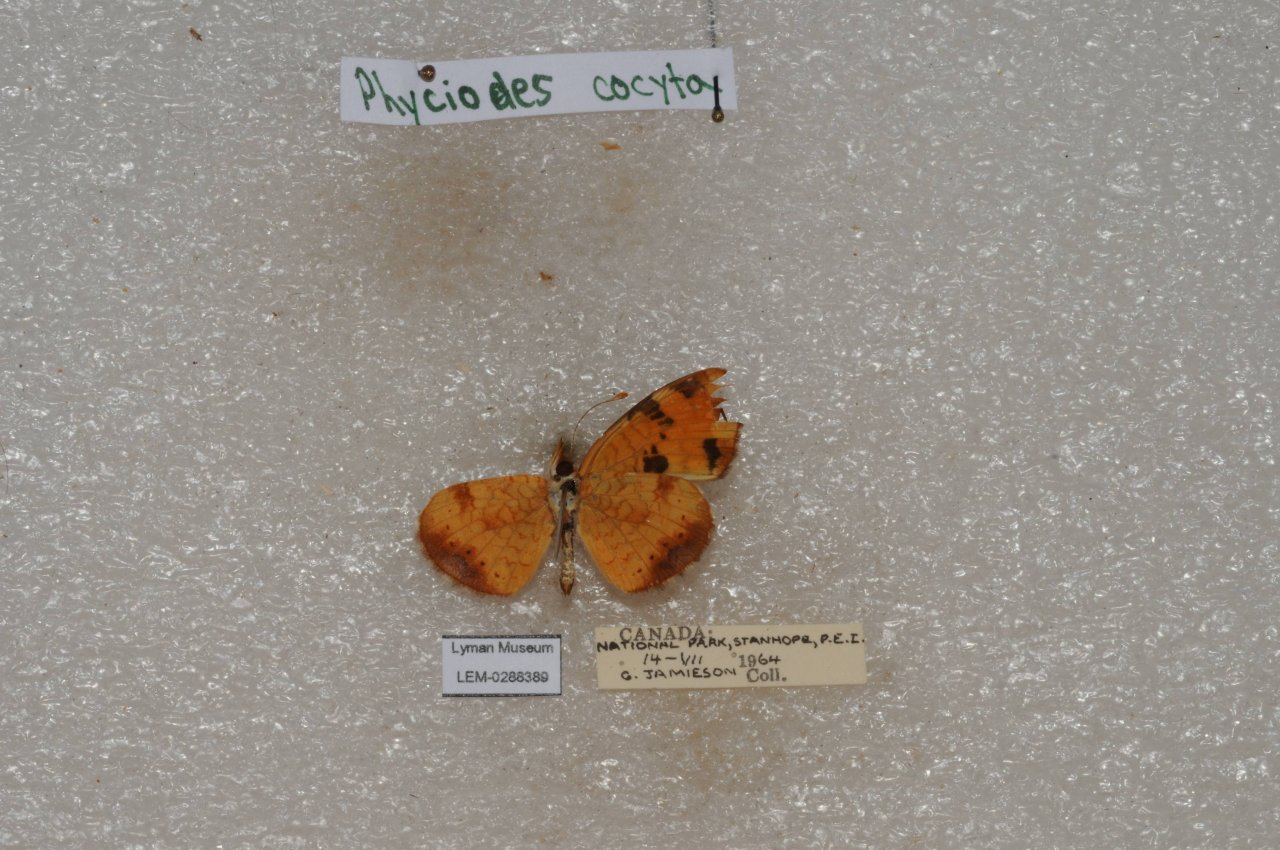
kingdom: Animalia
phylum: Arthropoda
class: Insecta
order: Lepidoptera
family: Nymphalidae
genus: Phyciodes
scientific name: Phyciodes tharos
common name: Northern Crescent
